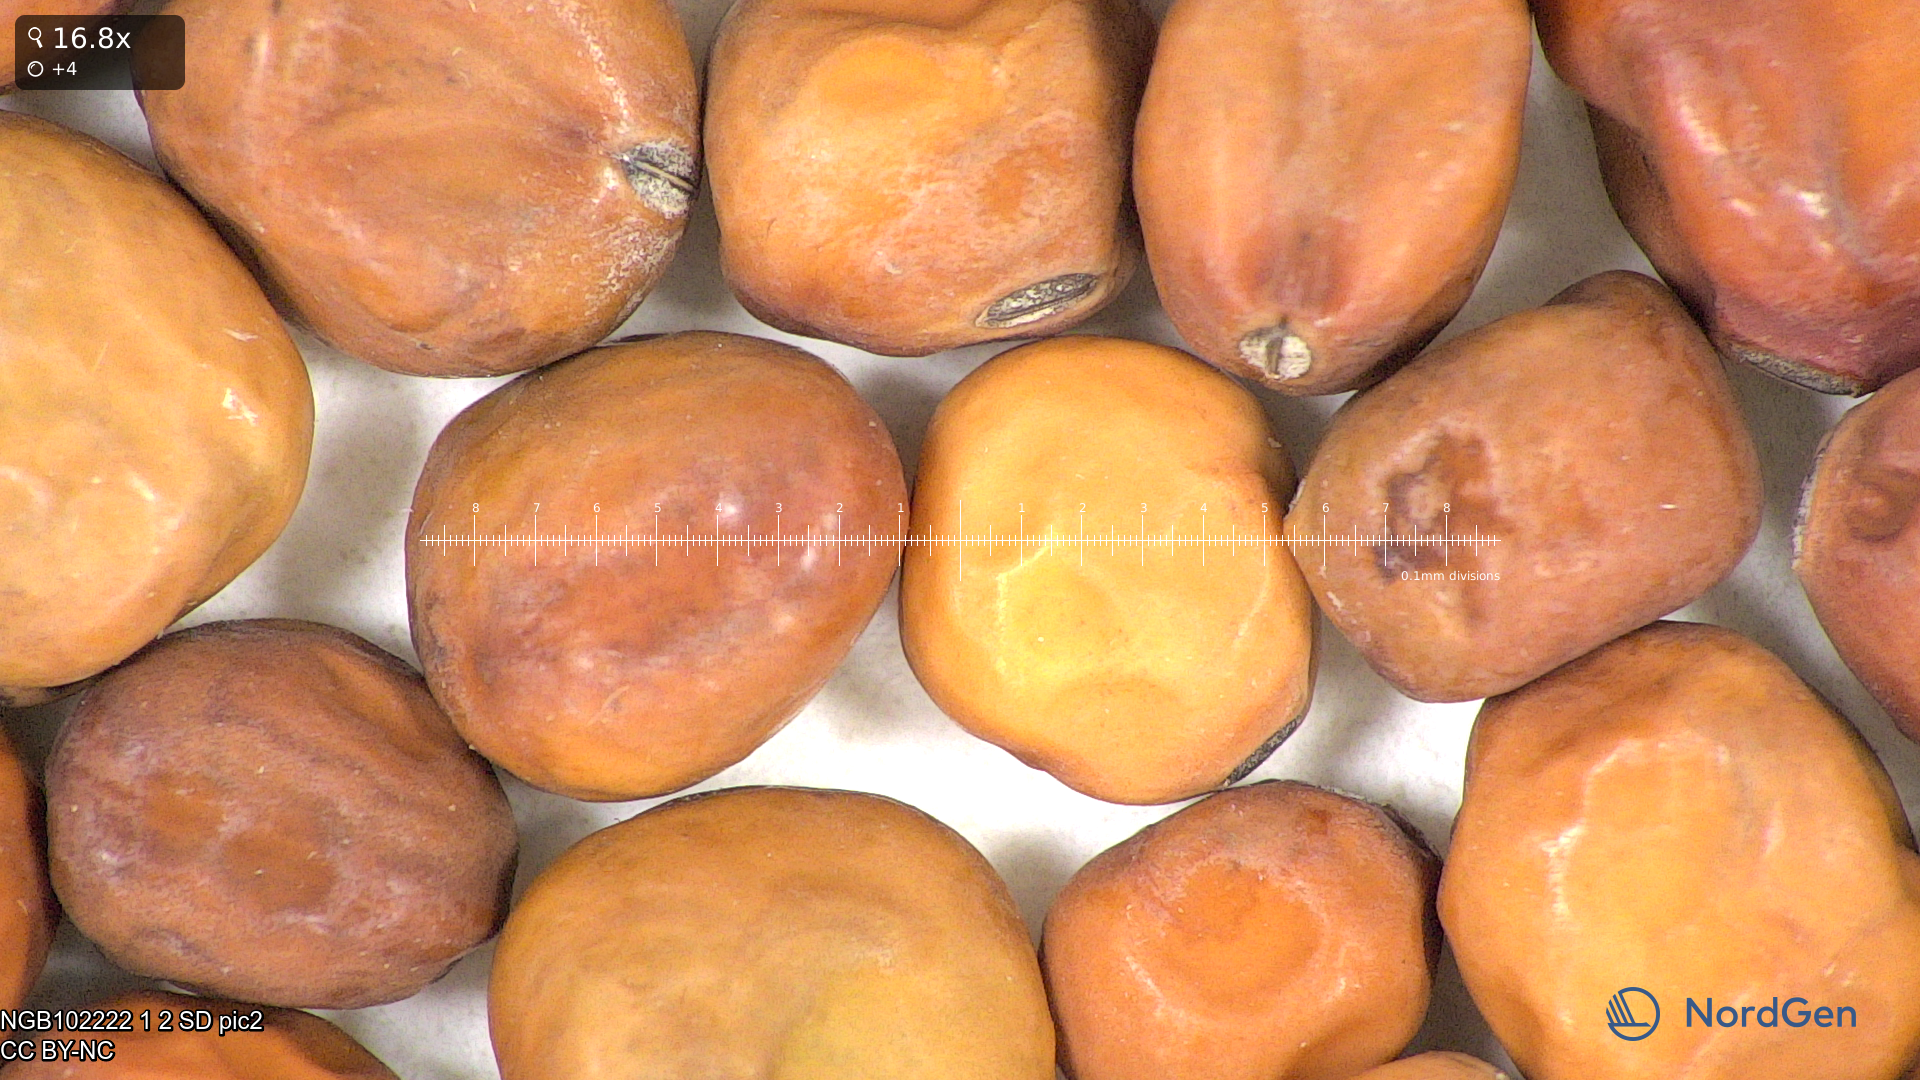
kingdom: Plantae
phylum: Tracheophyta
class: Magnoliopsida
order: Fabales
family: Fabaceae
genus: Lathyrus
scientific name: Lathyrus oleraceus
